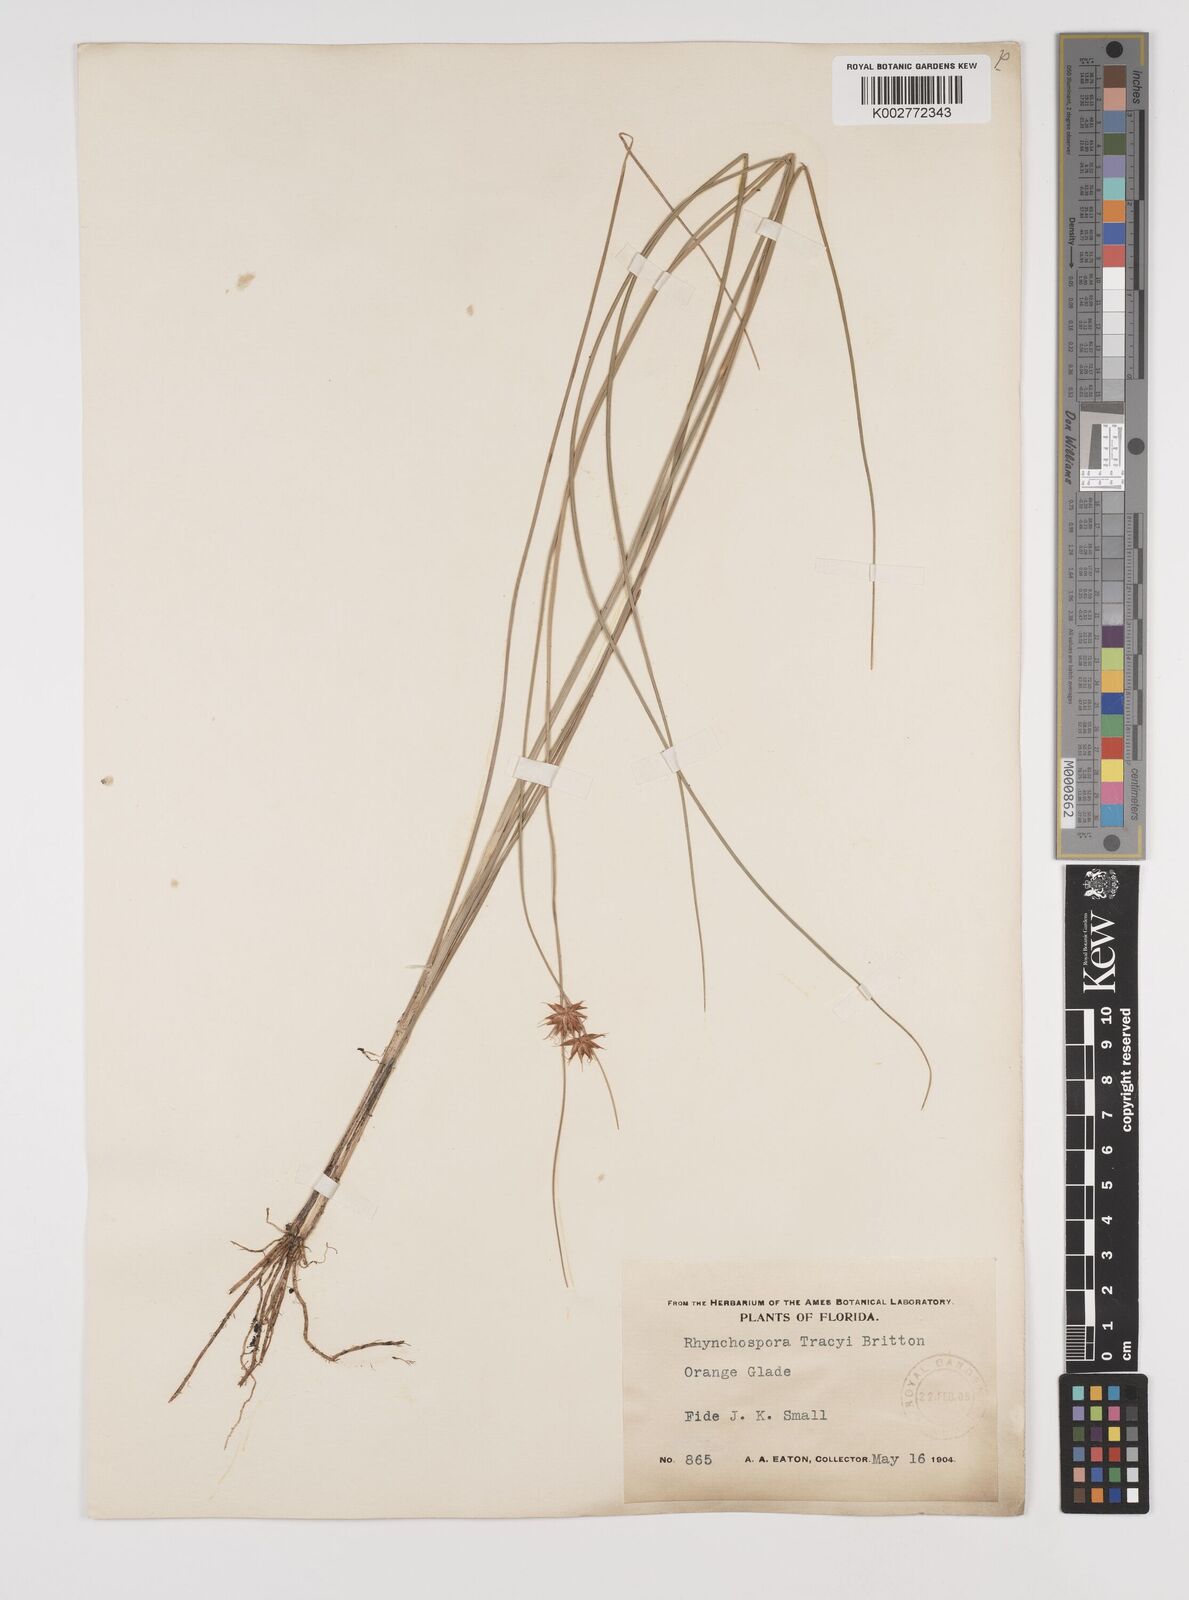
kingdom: Plantae
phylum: Tracheophyta
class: Liliopsida
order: Poales
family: Cyperaceae
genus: Rhynchospora
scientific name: Rhynchospora holoschoenoides
